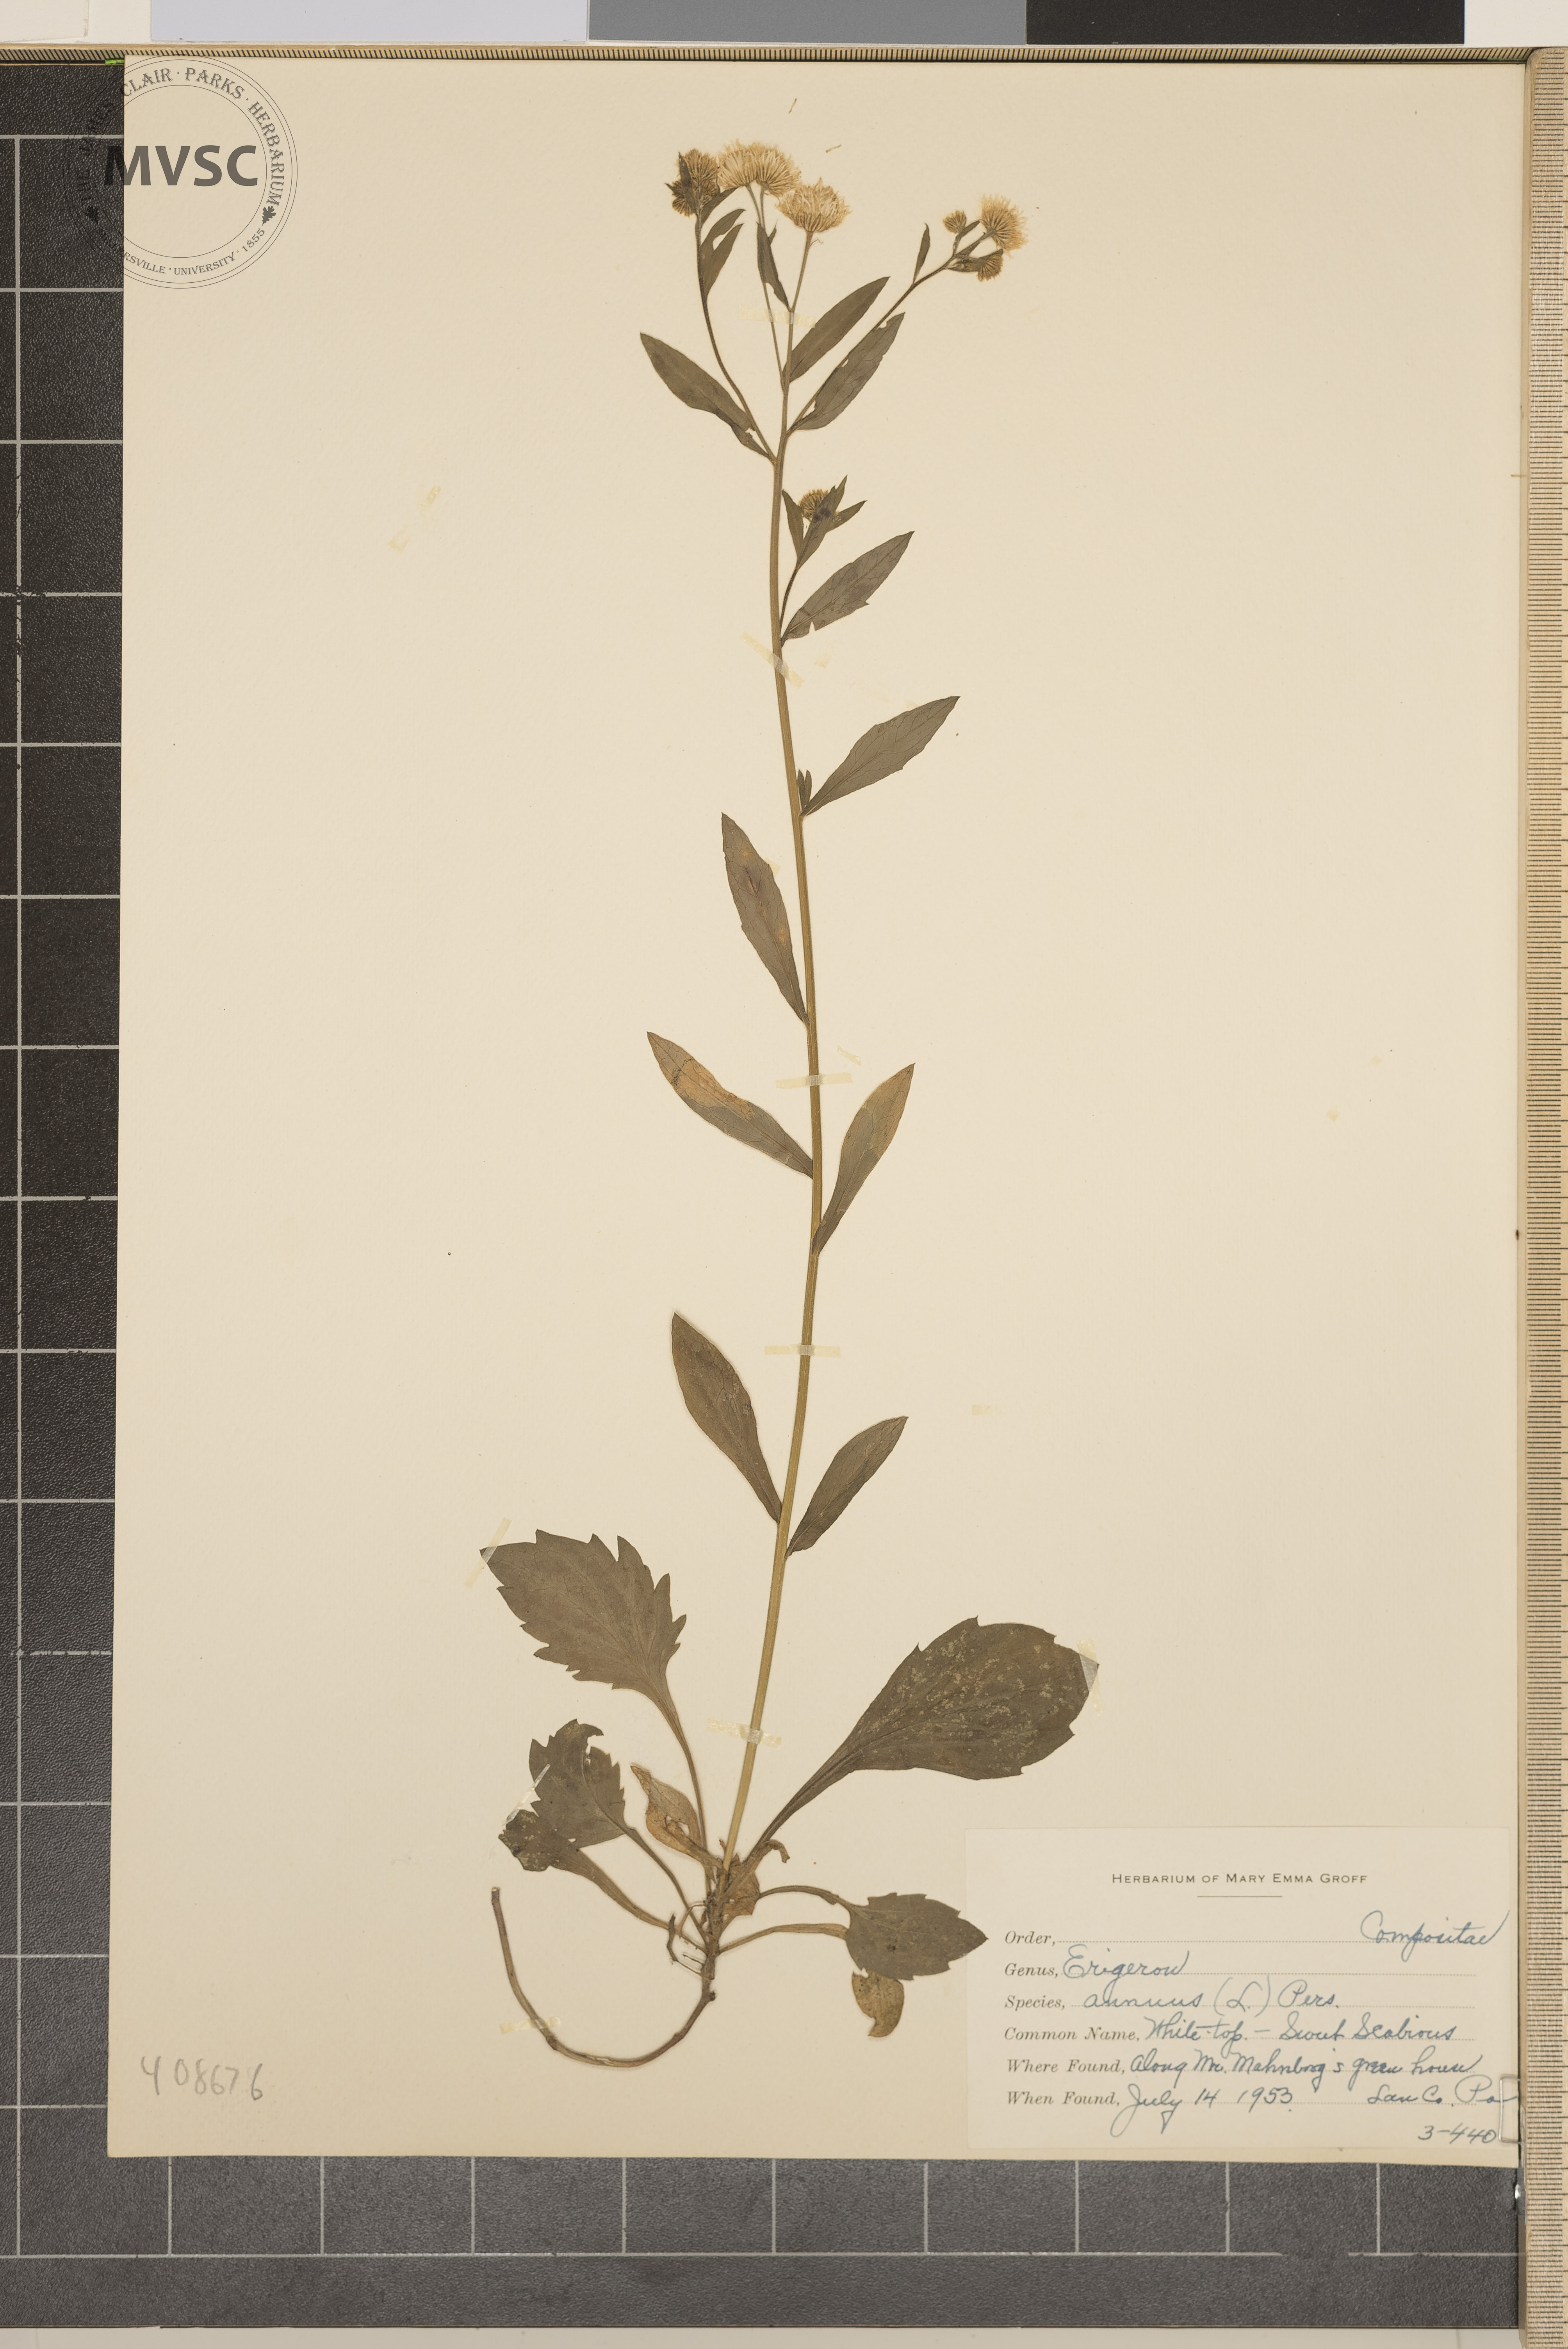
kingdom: Plantae
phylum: Tracheophyta
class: Magnoliopsida
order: Asterales
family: Asteraceae
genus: Erigeron
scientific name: Erigeron annuus
